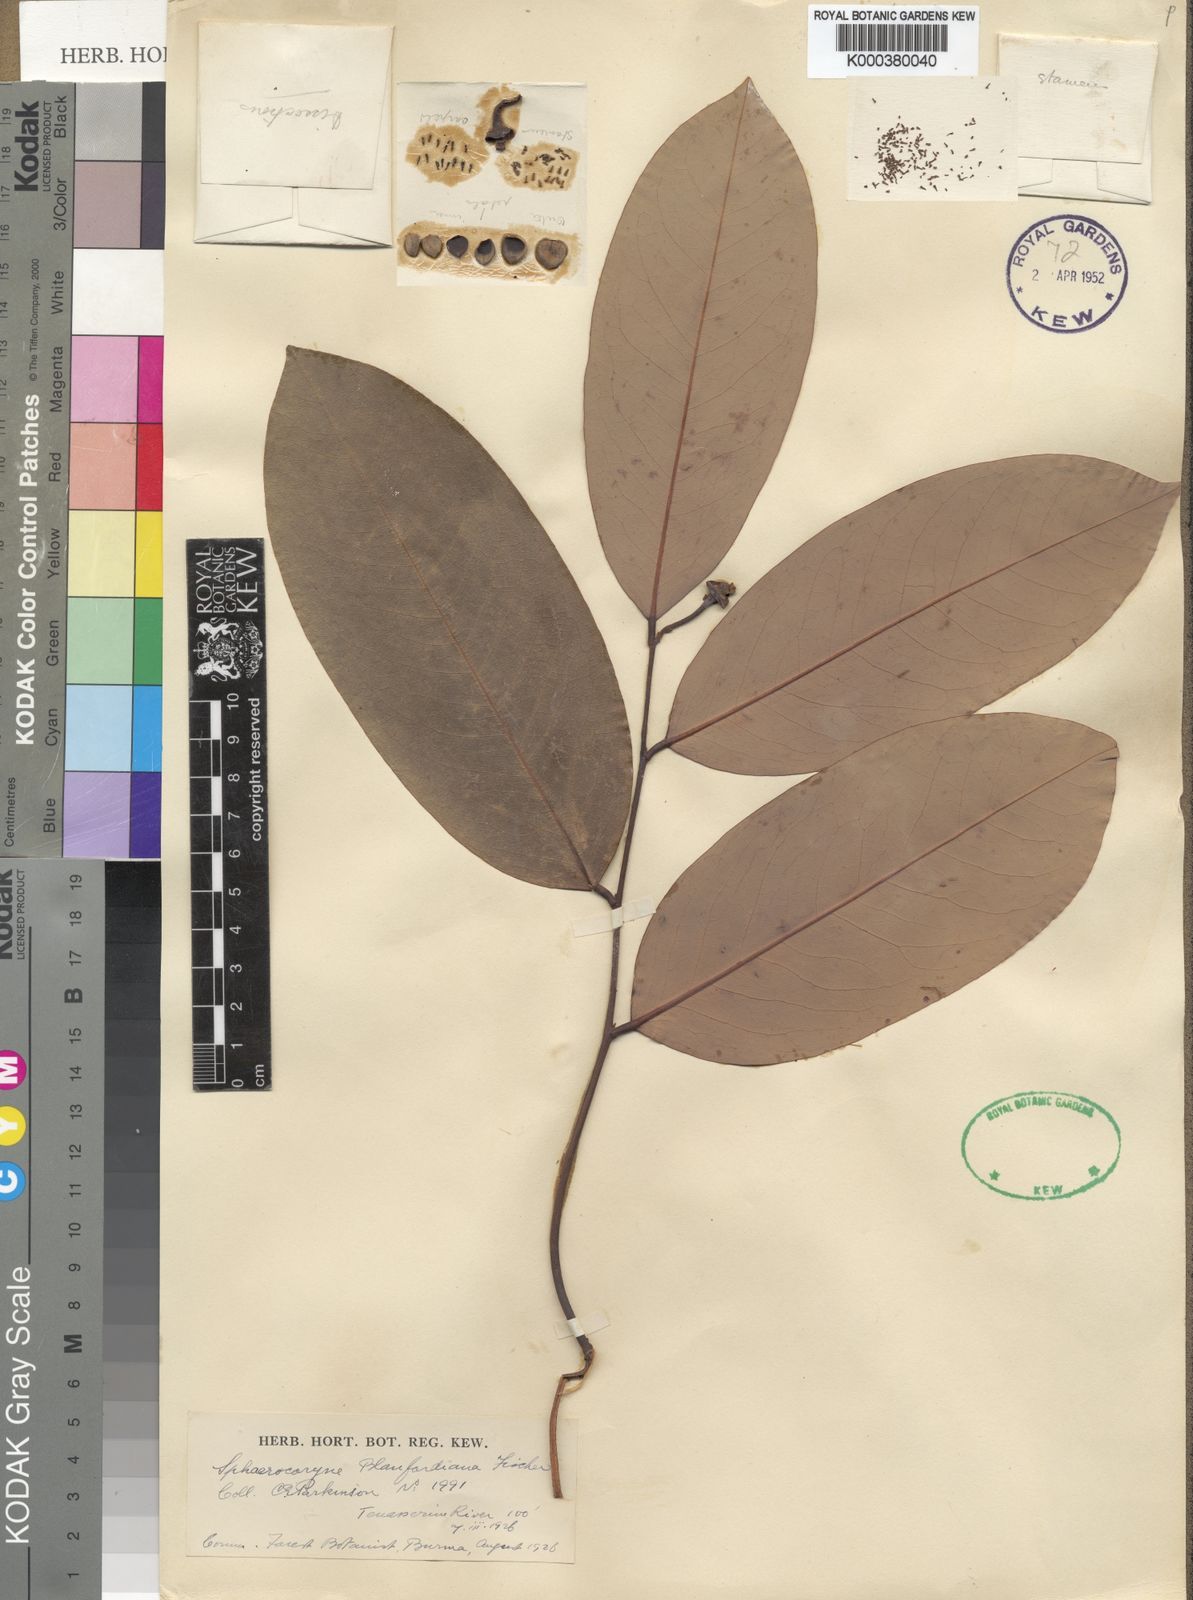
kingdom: Plantae
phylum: Tracheophyta
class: Magnoliopsida
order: Magnoliales
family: Annonaceae
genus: Sphaerocoryne
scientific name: Sphaerocoryne blanfordiana
